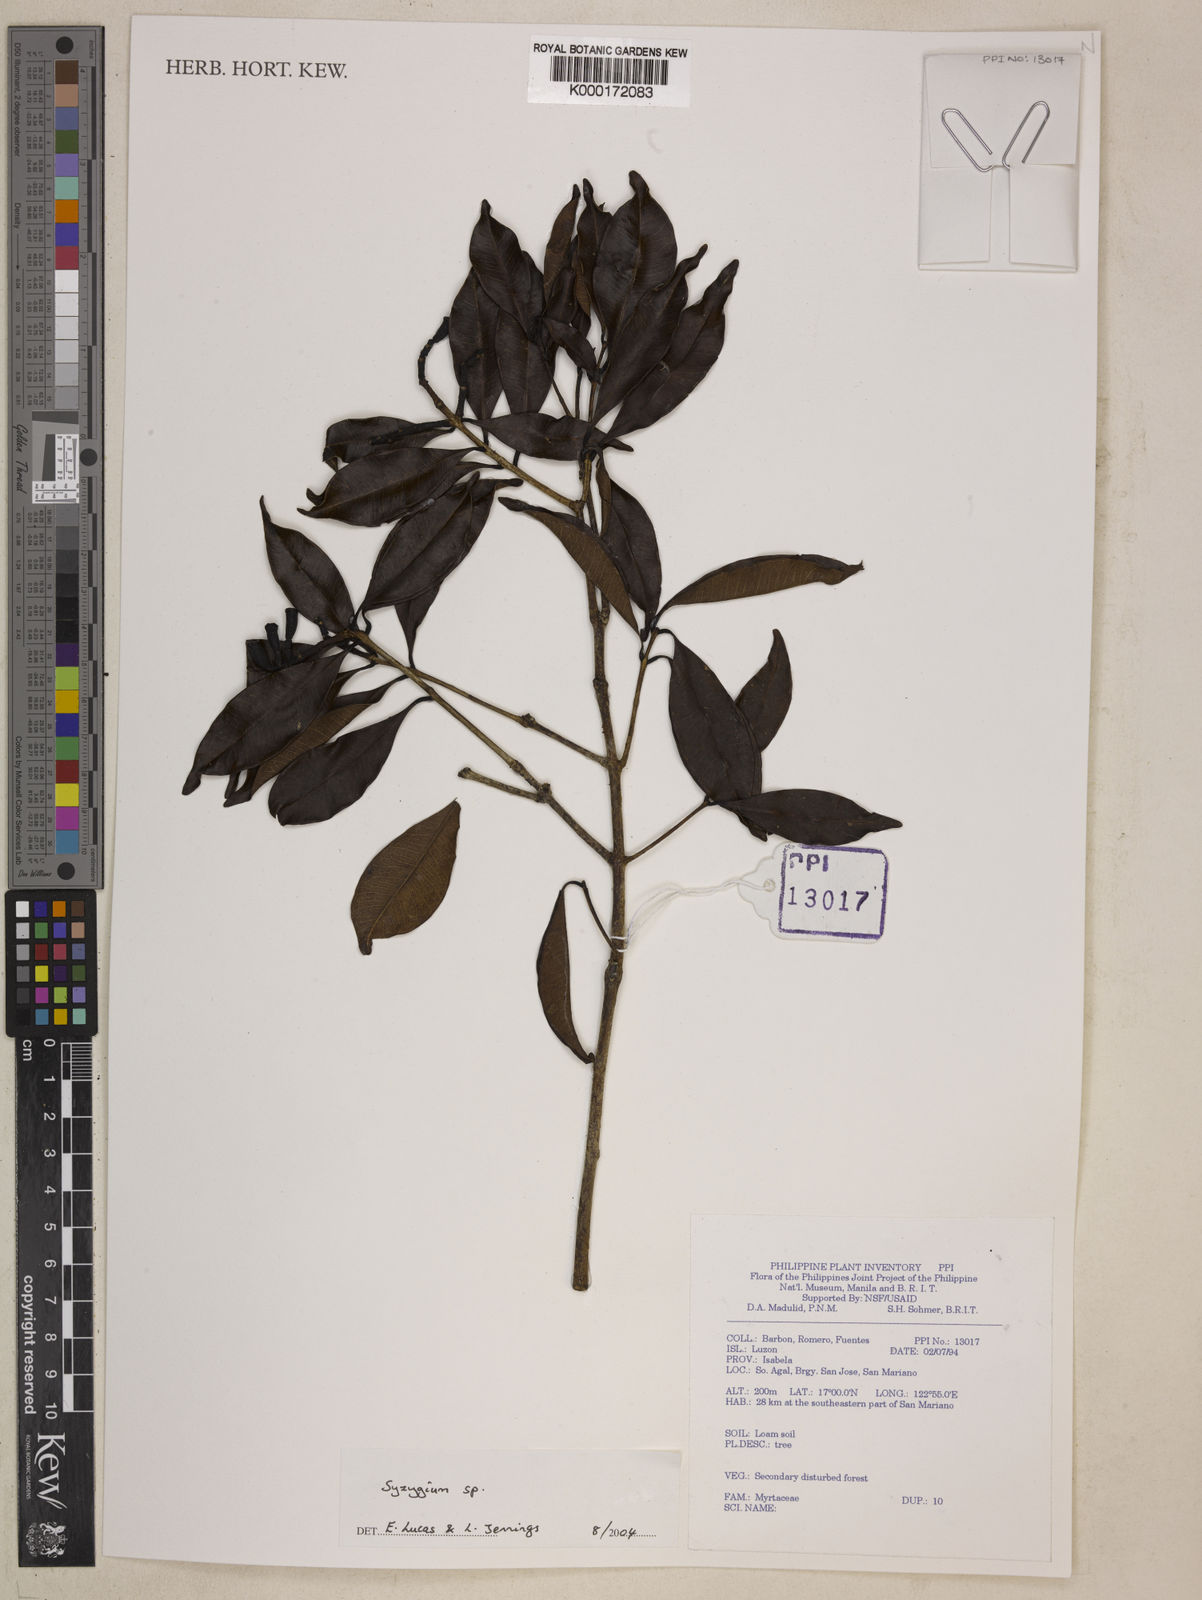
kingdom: Plantae
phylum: Tracheophyta
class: Magnoliopsida
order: Myrtales
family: Myrtaceae
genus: Syzygium
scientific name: Syzygium
